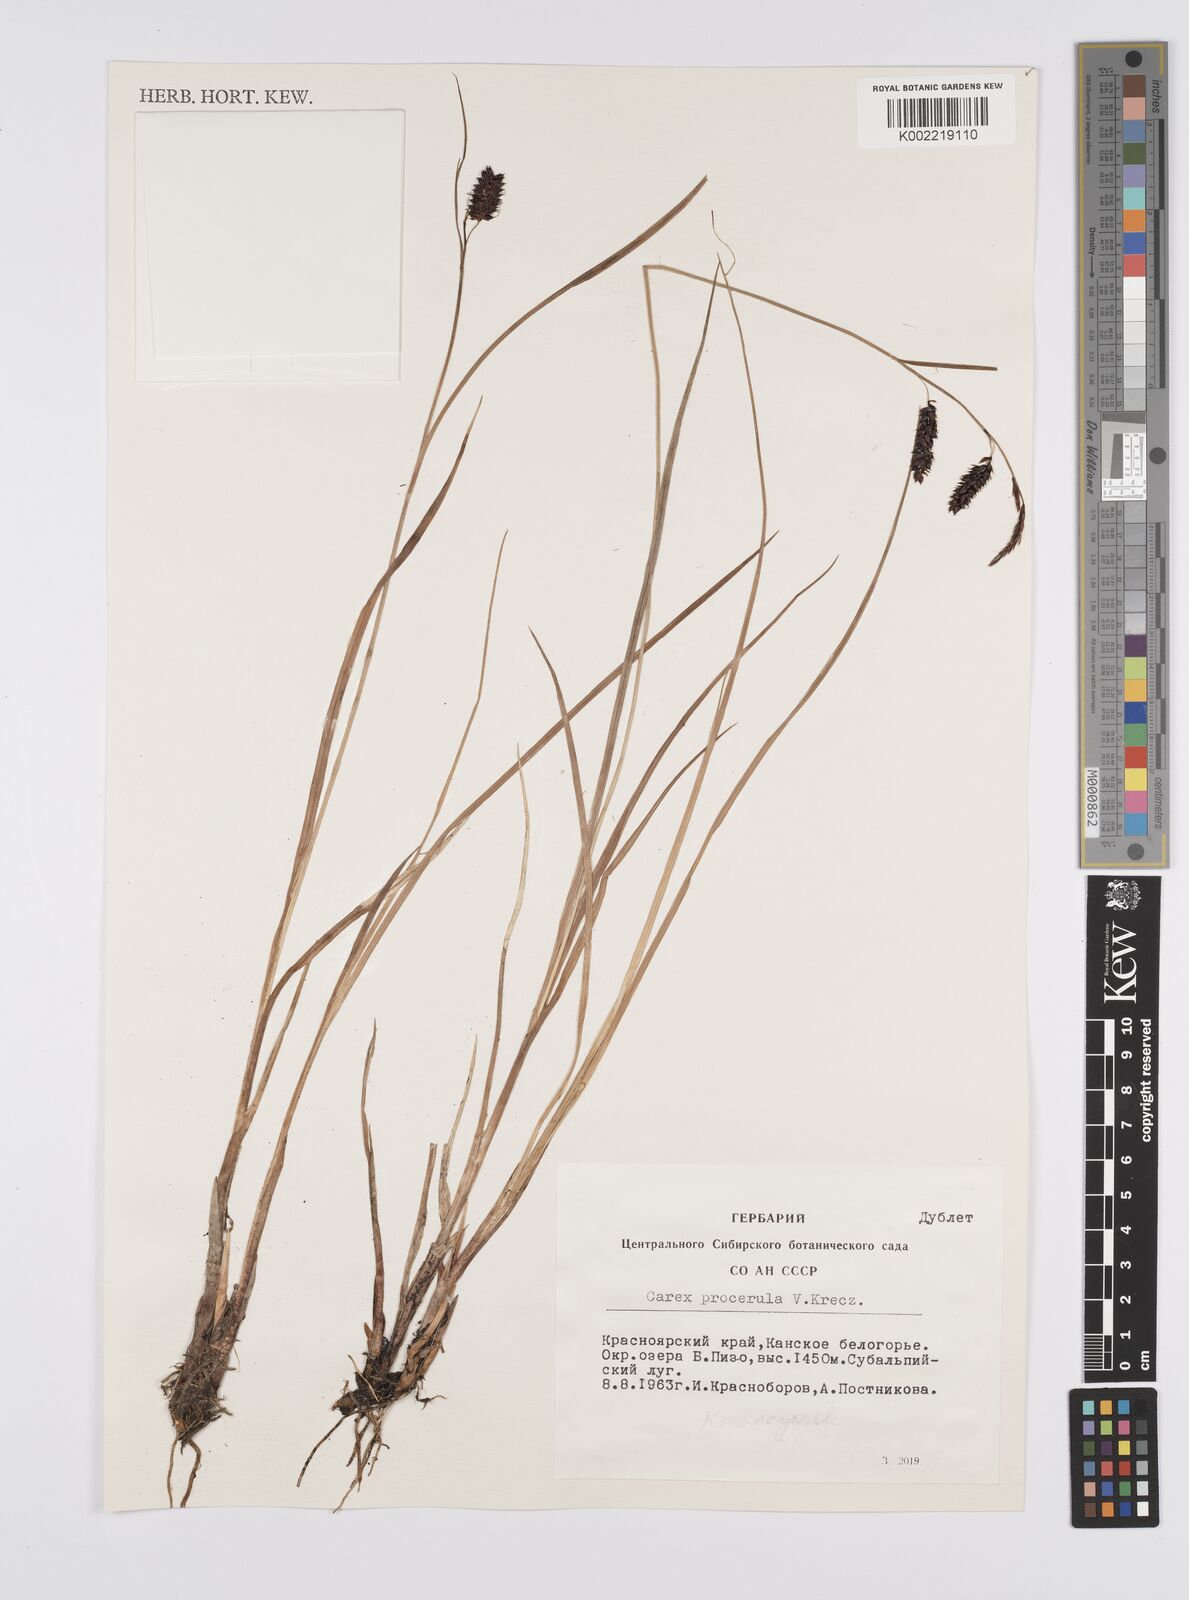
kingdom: Plantae
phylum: Tracheophyta
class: Liliopsida
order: Poales
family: Cyperaceae
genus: Carex
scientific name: Carex saxatilis
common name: Russet sedge
